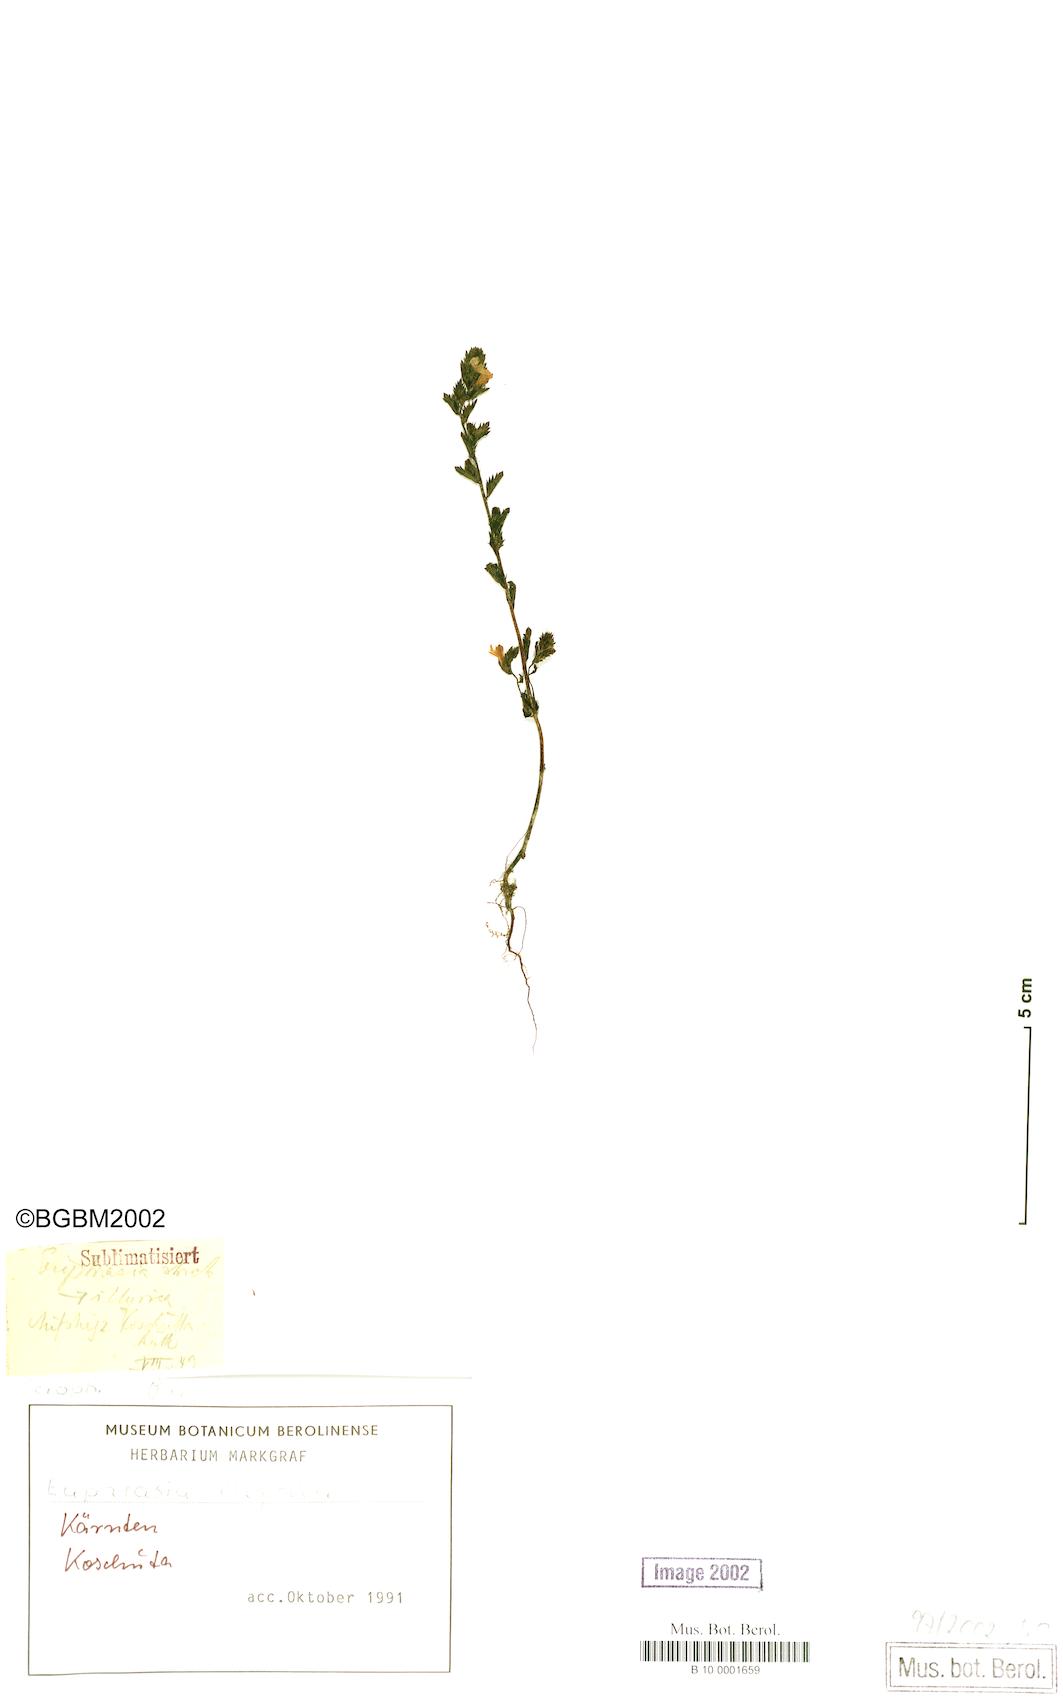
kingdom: Plantae
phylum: Tracheophyta
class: Magnoliopsida
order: Lamiales
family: Orobanchaceae
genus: Euphrasia
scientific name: Euphrasia illyrica
